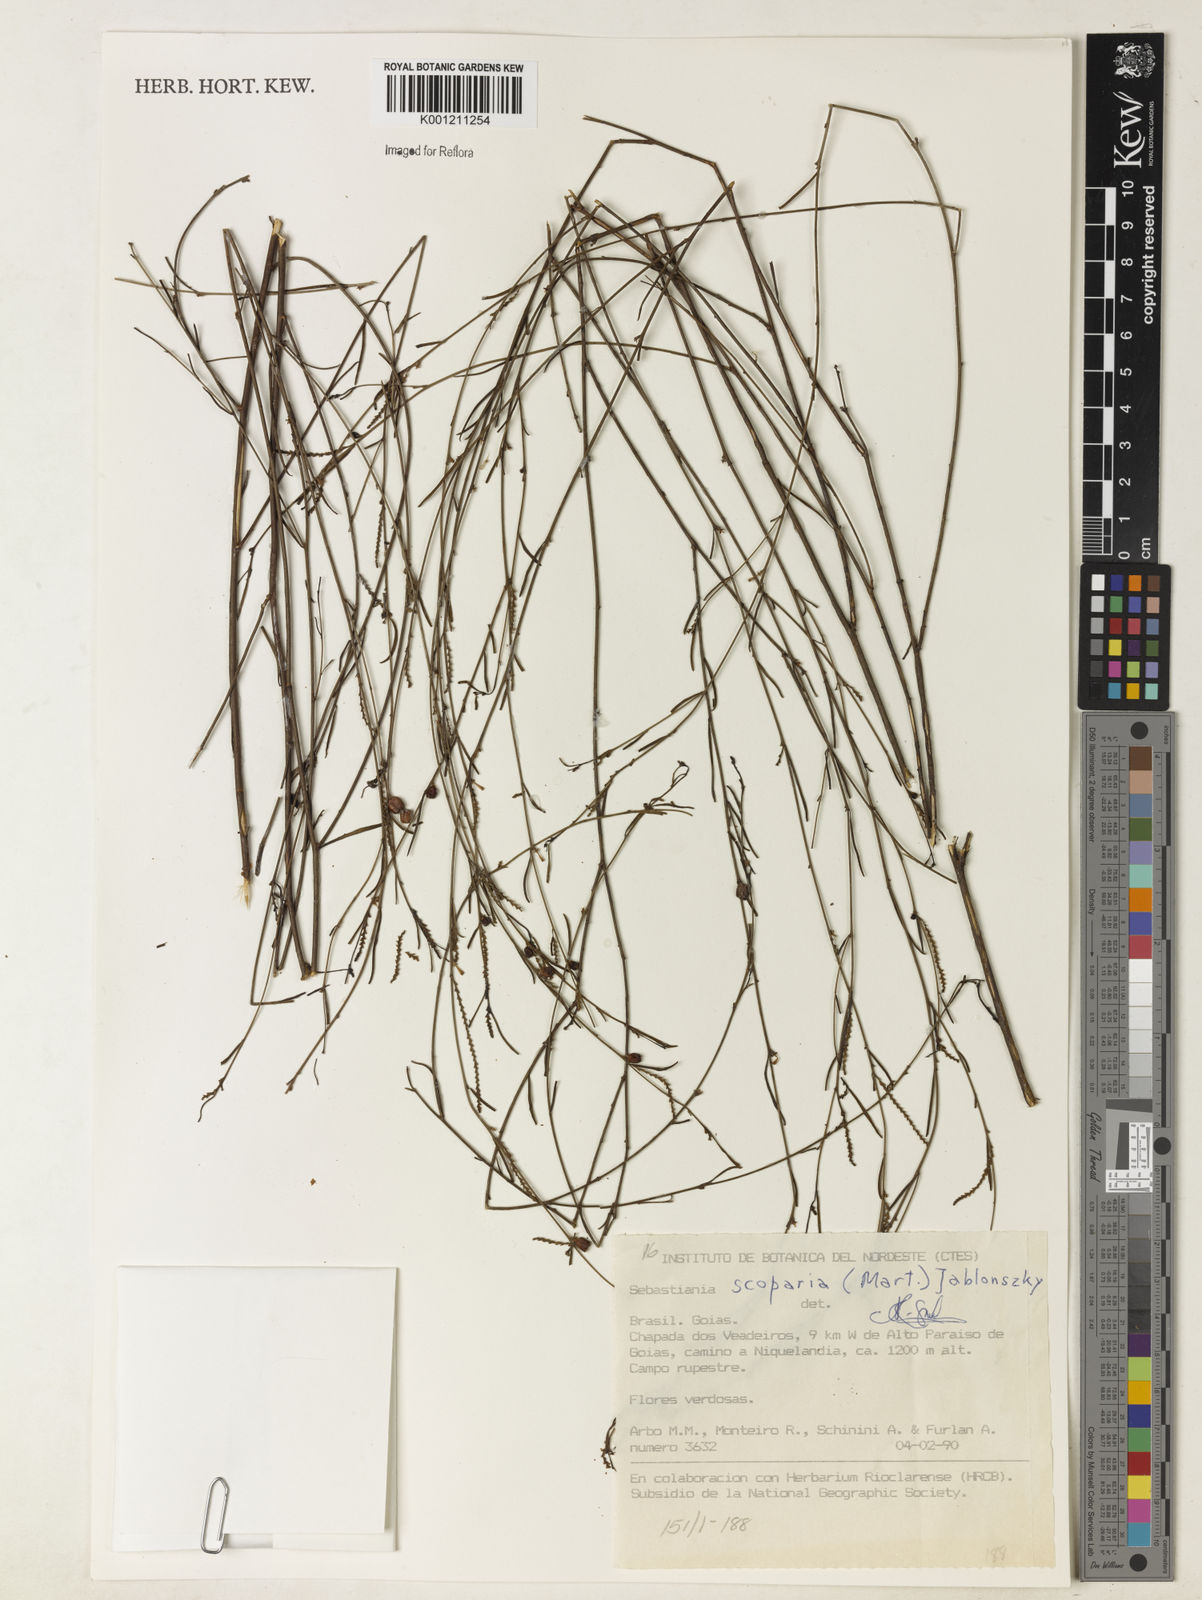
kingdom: Plantae
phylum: Tracheophyta
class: Magnoliopsida
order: Malpighiales
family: Euphorbiaceae
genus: Microstachys
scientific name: Microstachys bidentata
